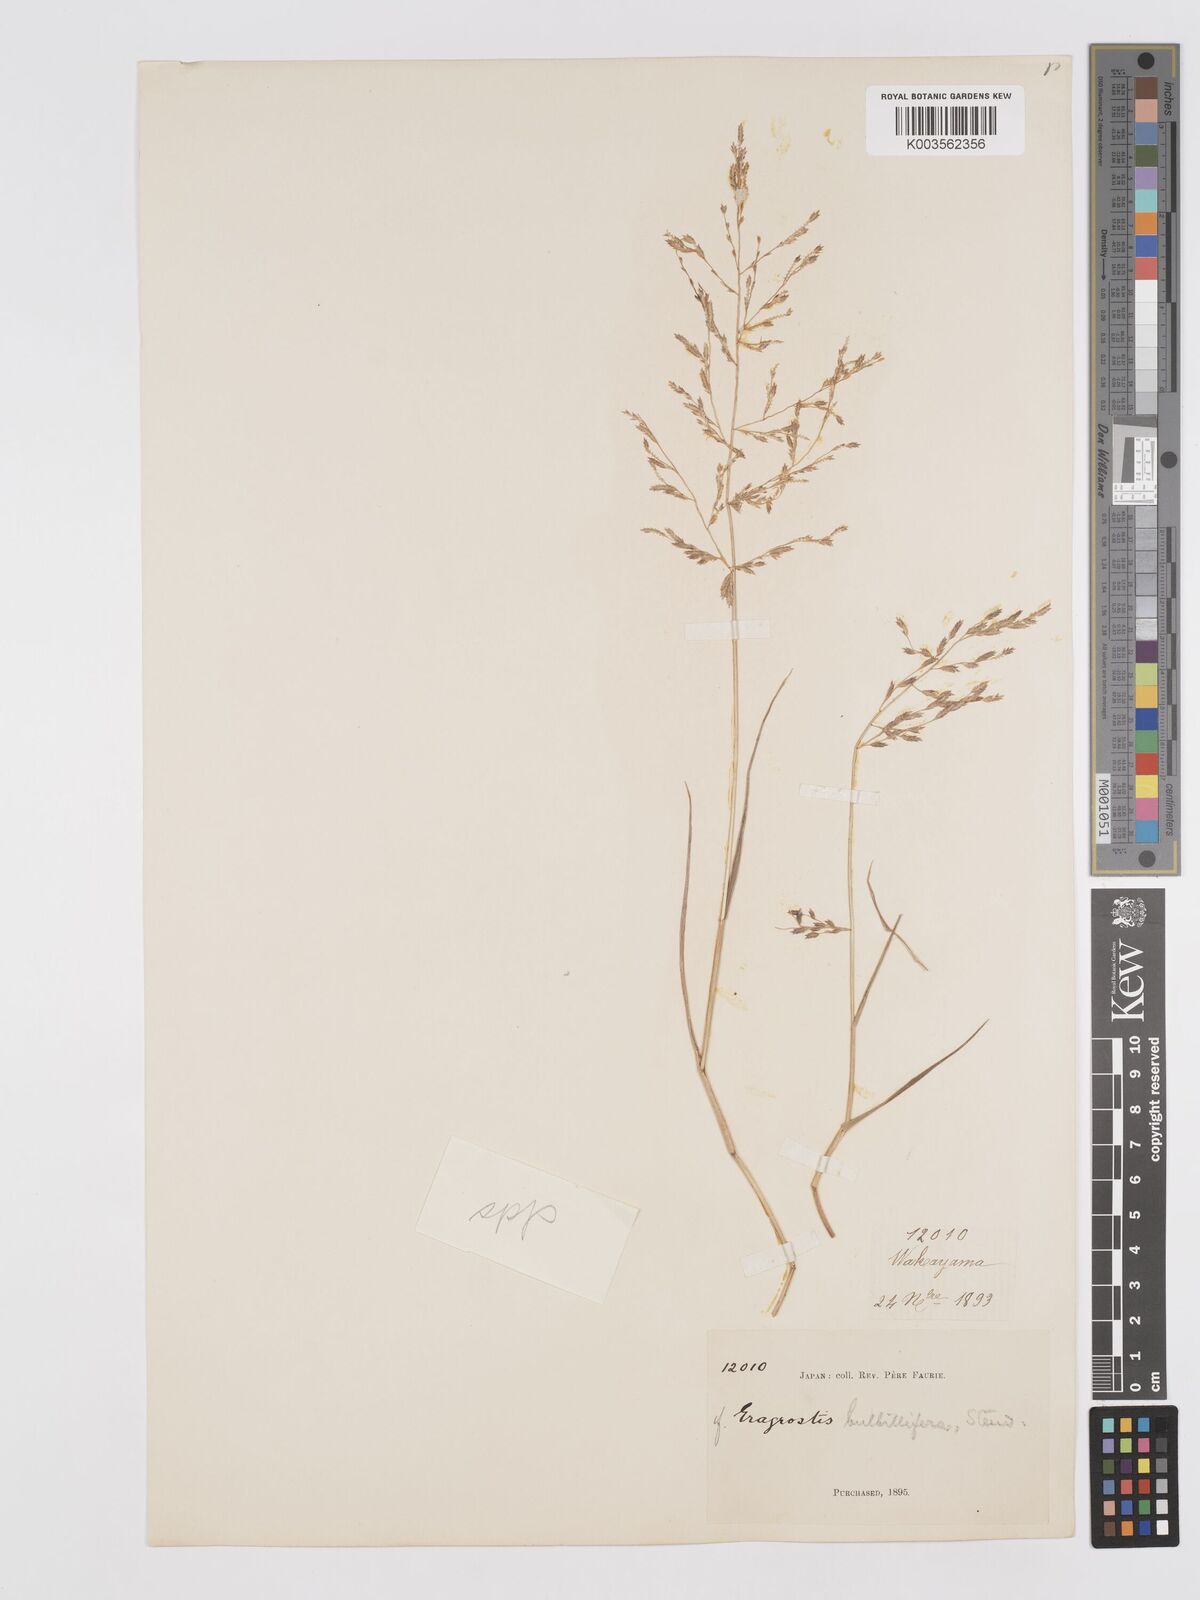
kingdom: Plantae
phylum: Tracheophyta
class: Liliopsida
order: Poales
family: Poaceae
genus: Eragrostis
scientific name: Eragrostis
